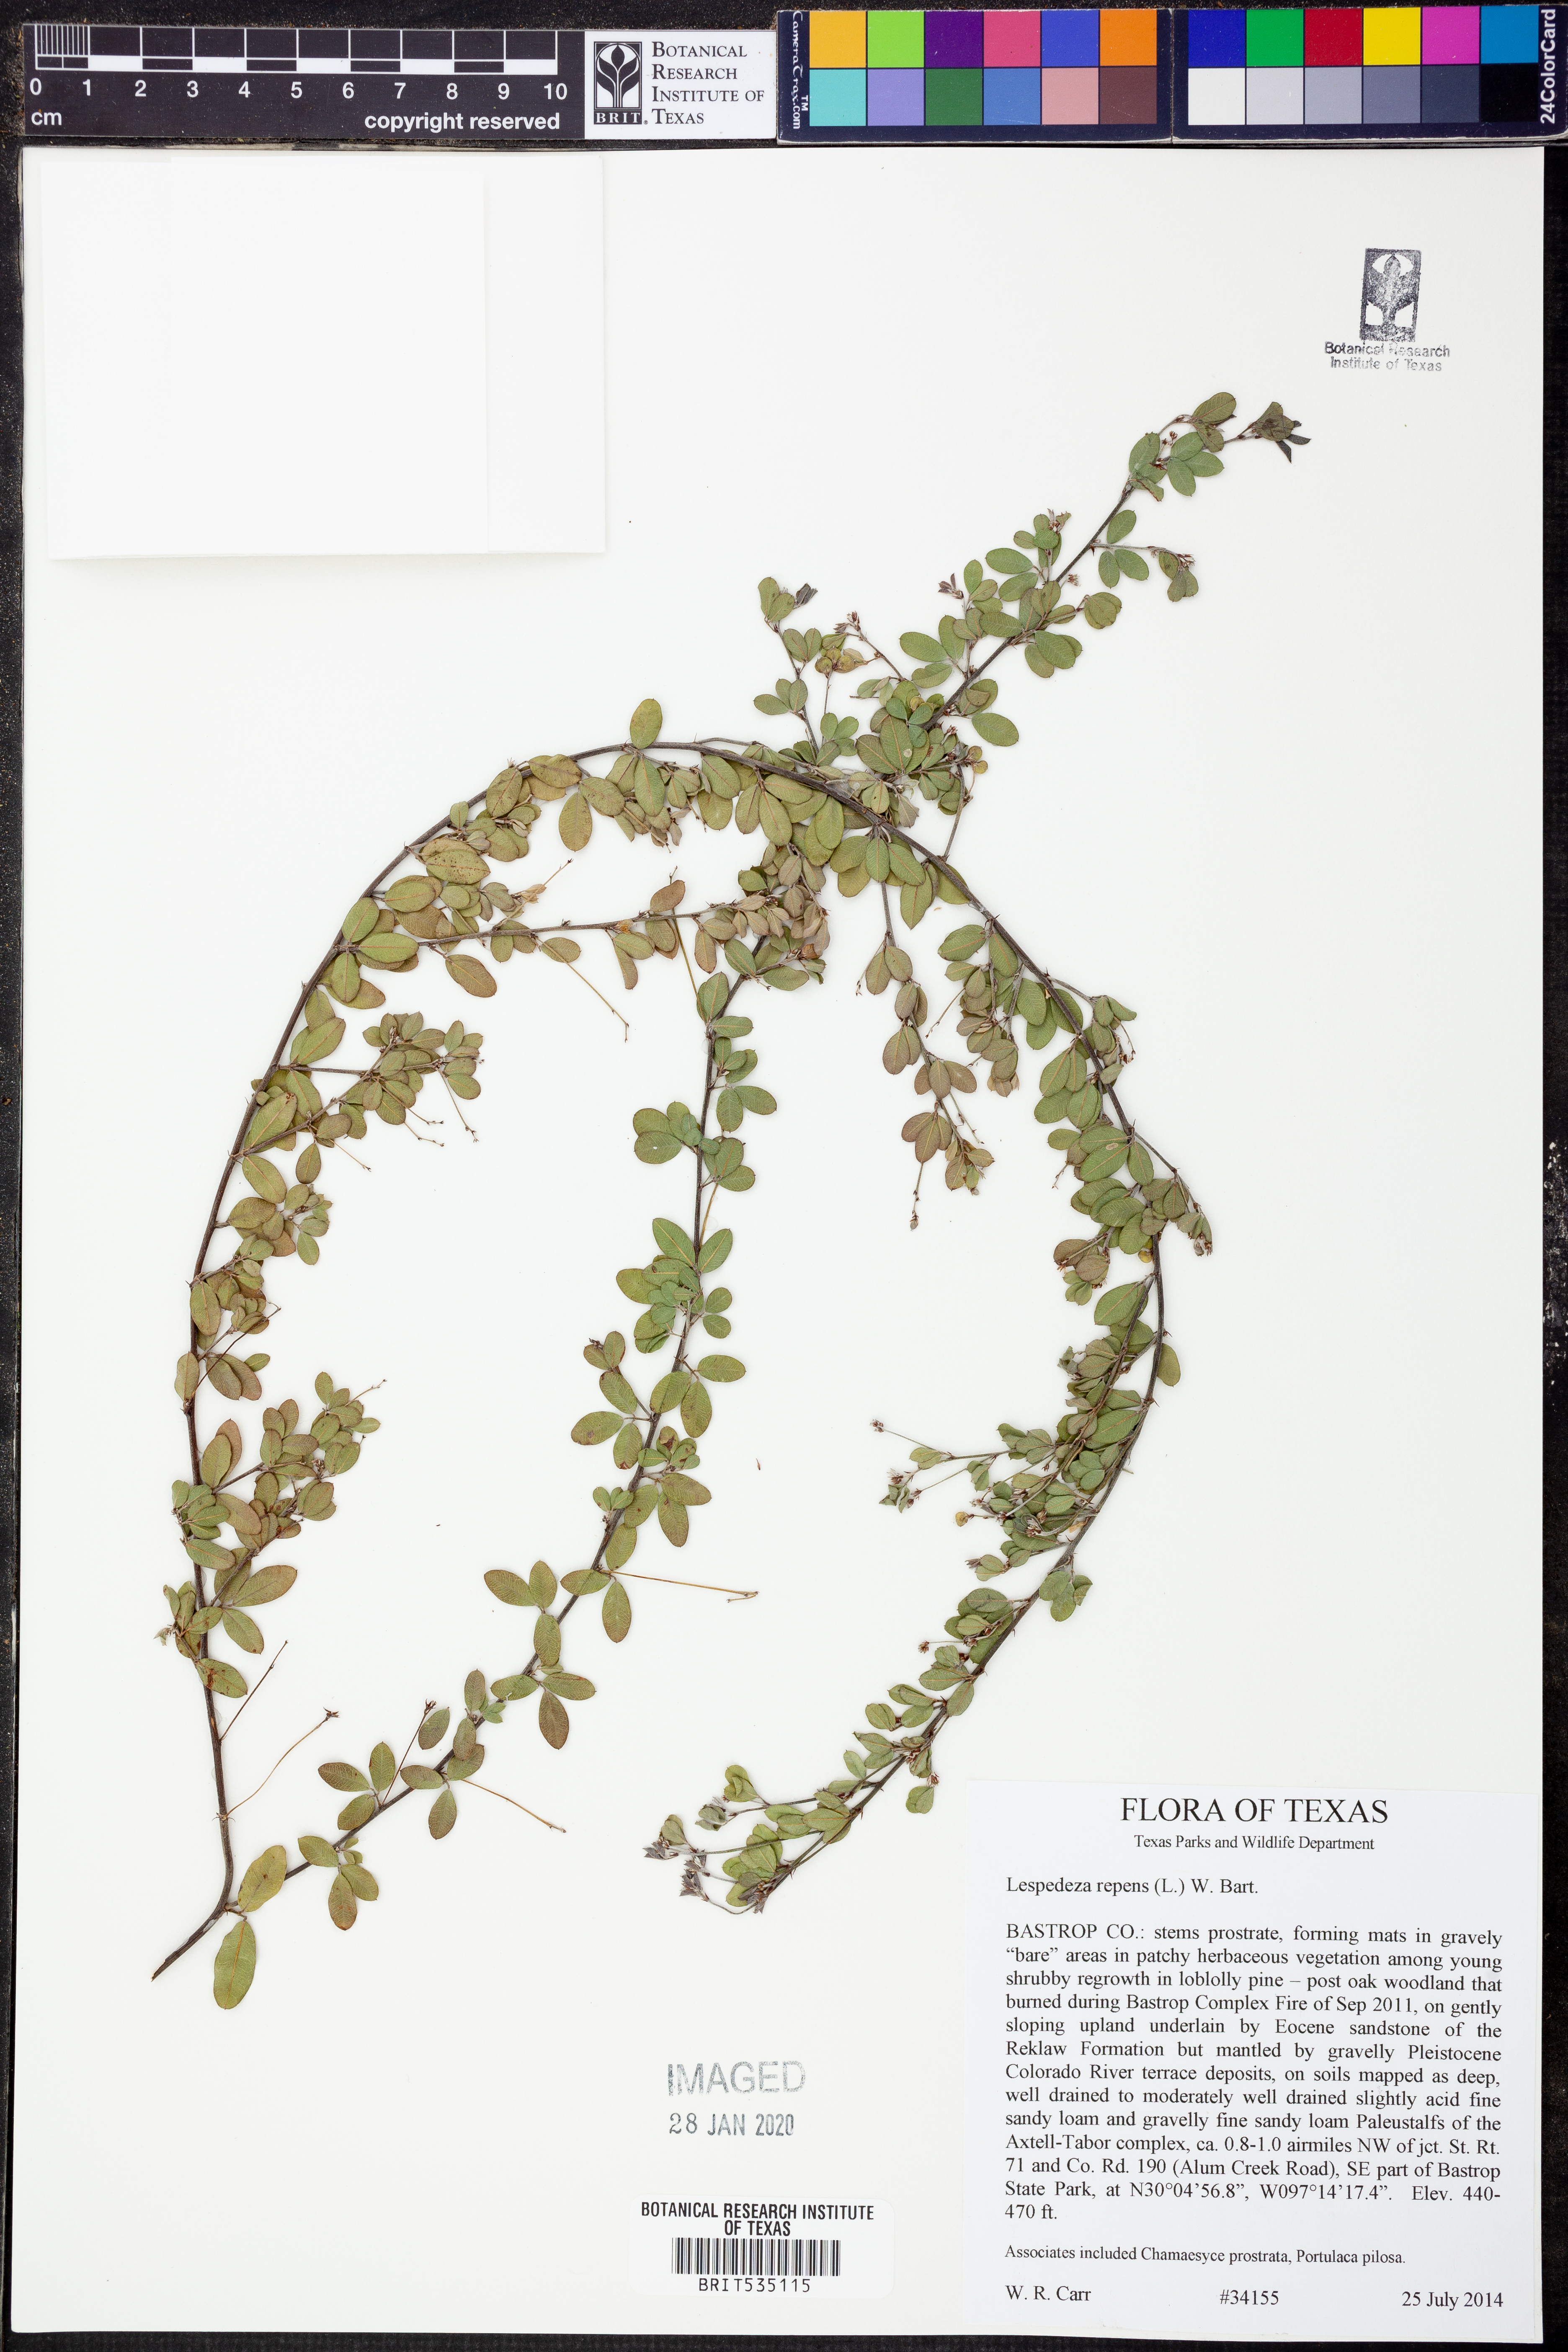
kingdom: Plantae
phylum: Tracheophyta
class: Magnoliopsida
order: Fabales
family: Fabaceae
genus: Lespedeza
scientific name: Lespedeza repens
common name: Creeping bush-clover
